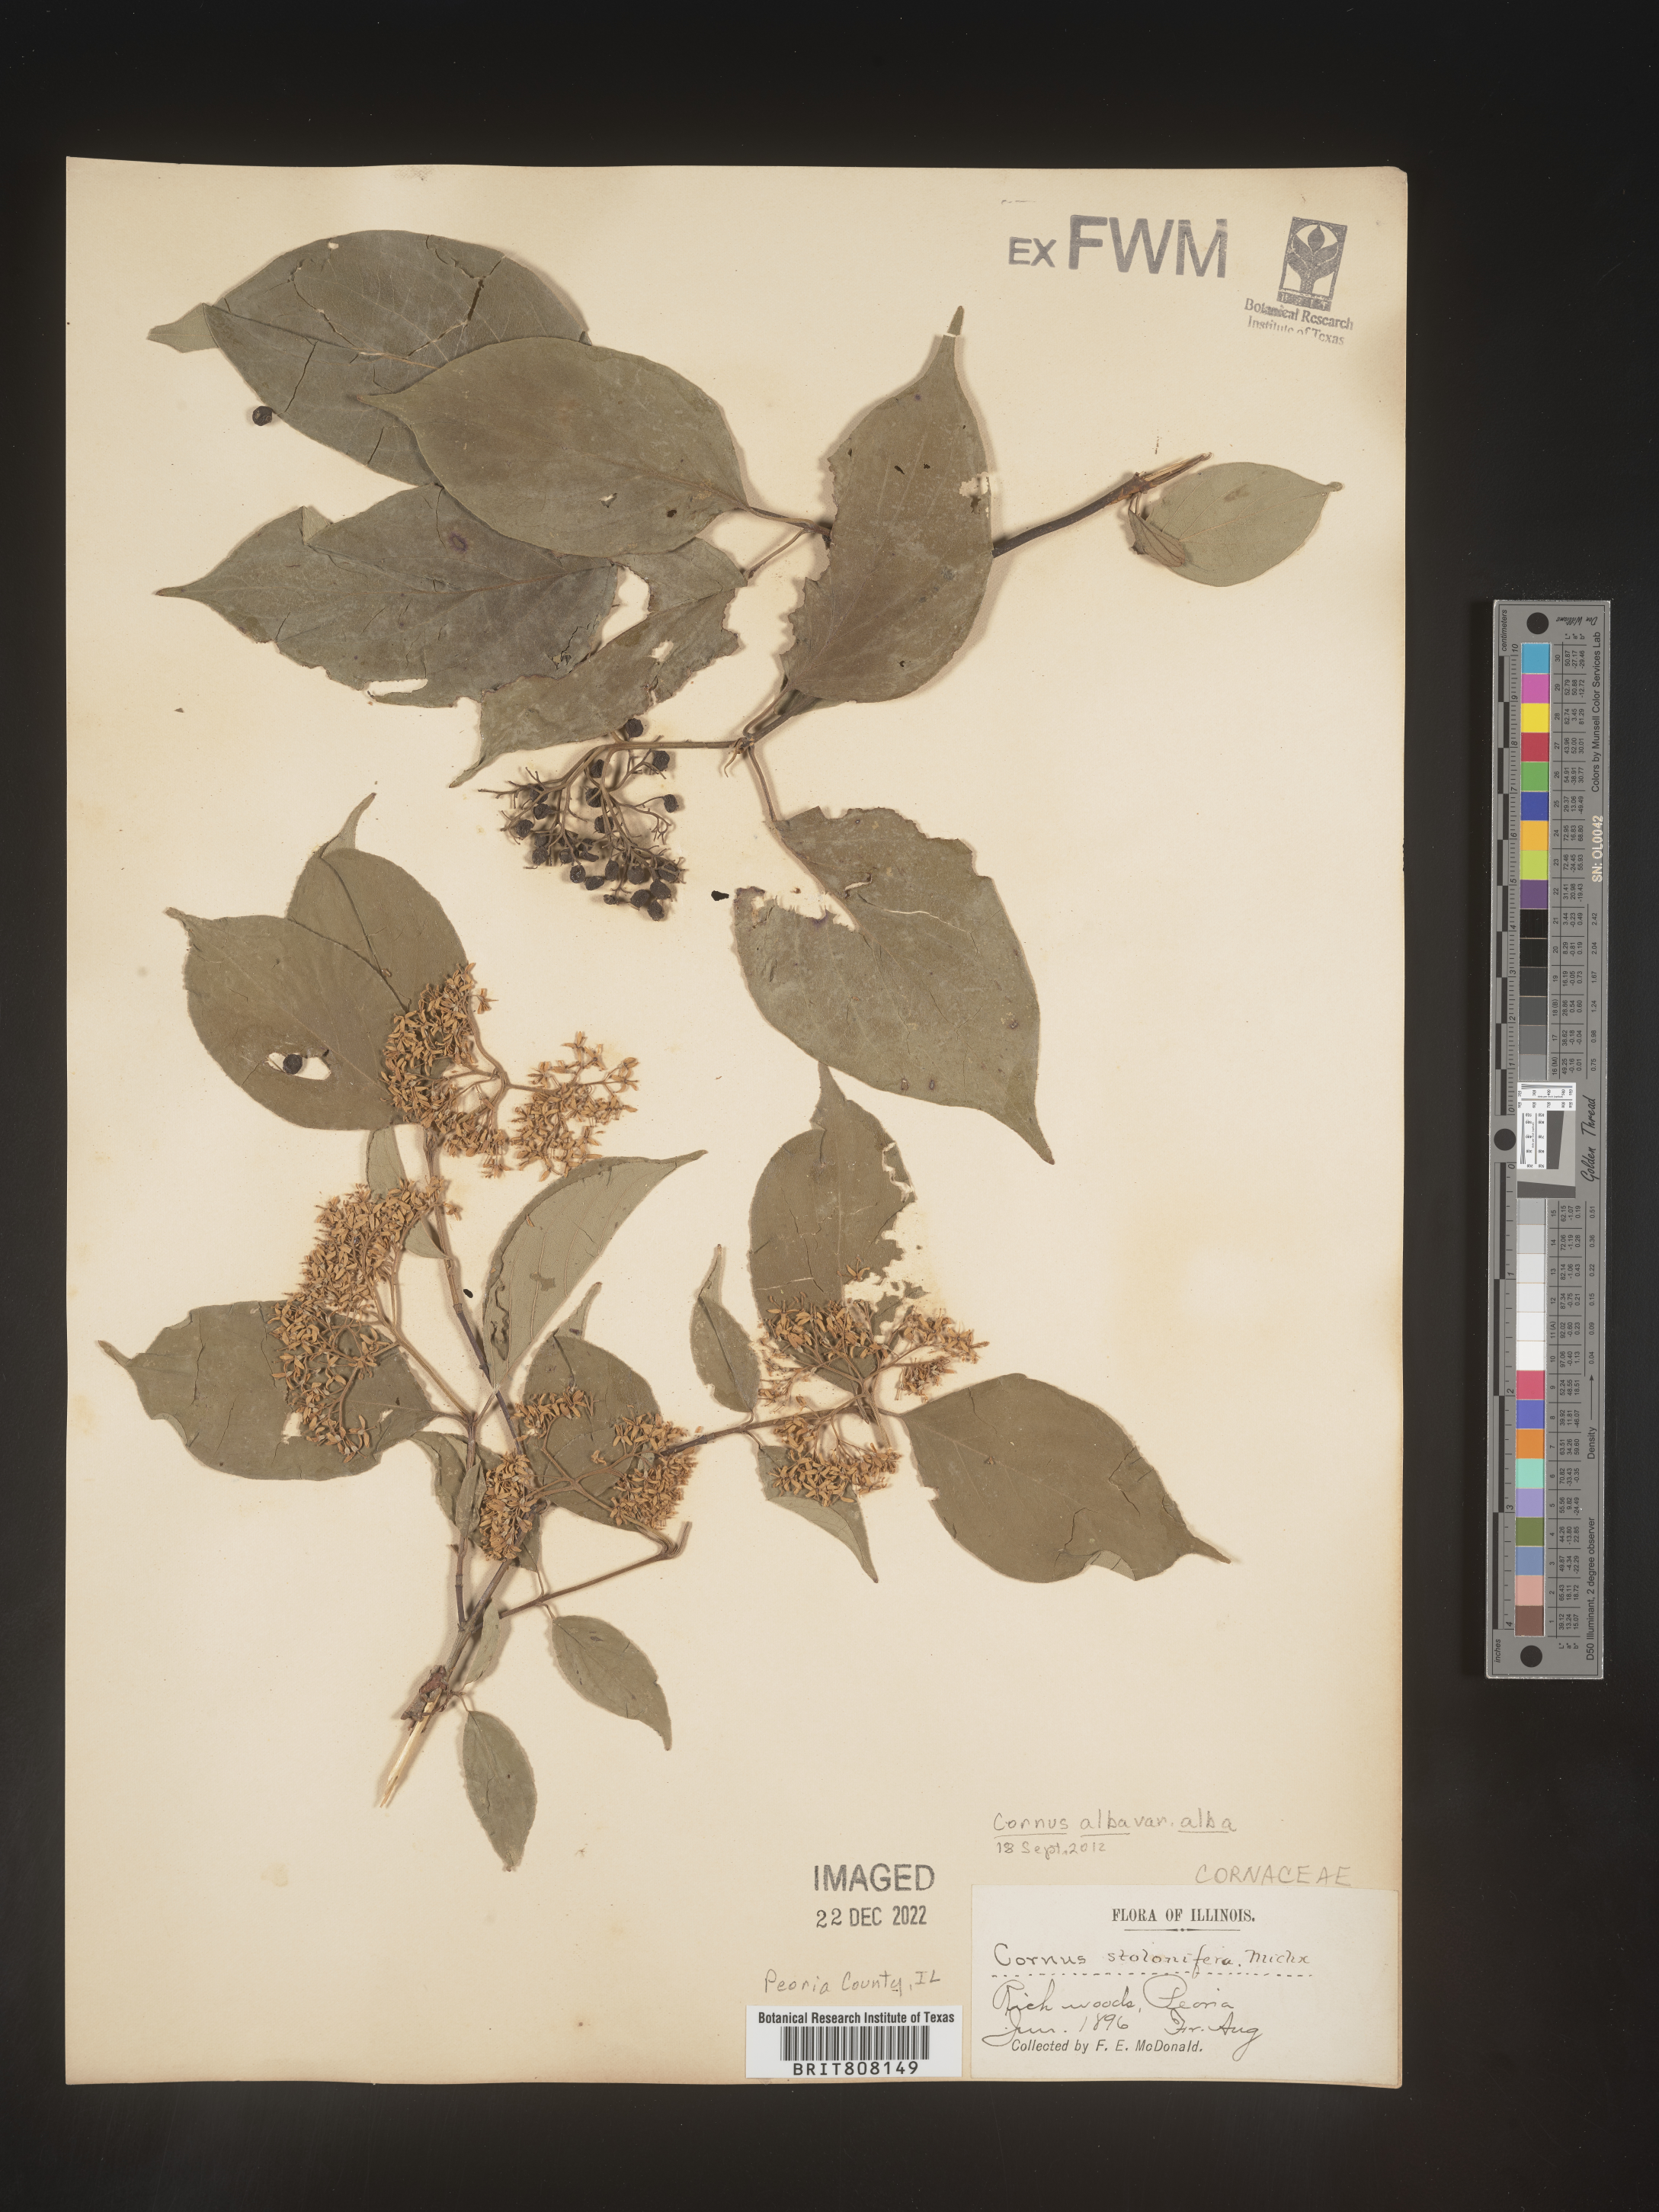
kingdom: Plantae
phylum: Tracheophyta
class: Magnoliopsida
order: Cornales
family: Cornaceae
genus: Cornus
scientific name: Cornus sericea
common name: Red-osier dogwood
